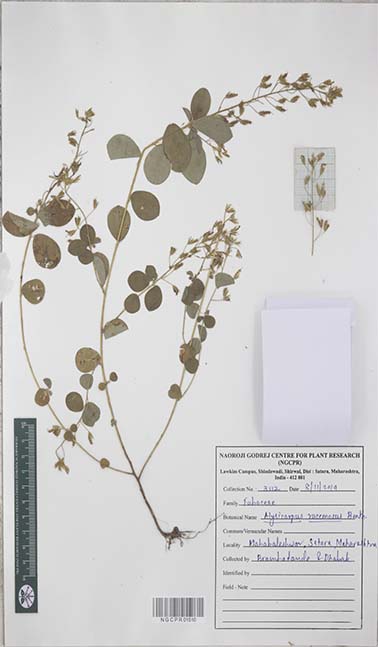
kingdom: Plantae
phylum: Tracheophyta
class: Magnoliopsida
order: Fabales
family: Fabaceae
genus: Alysicarpus
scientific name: Alysicarpus racemosus
